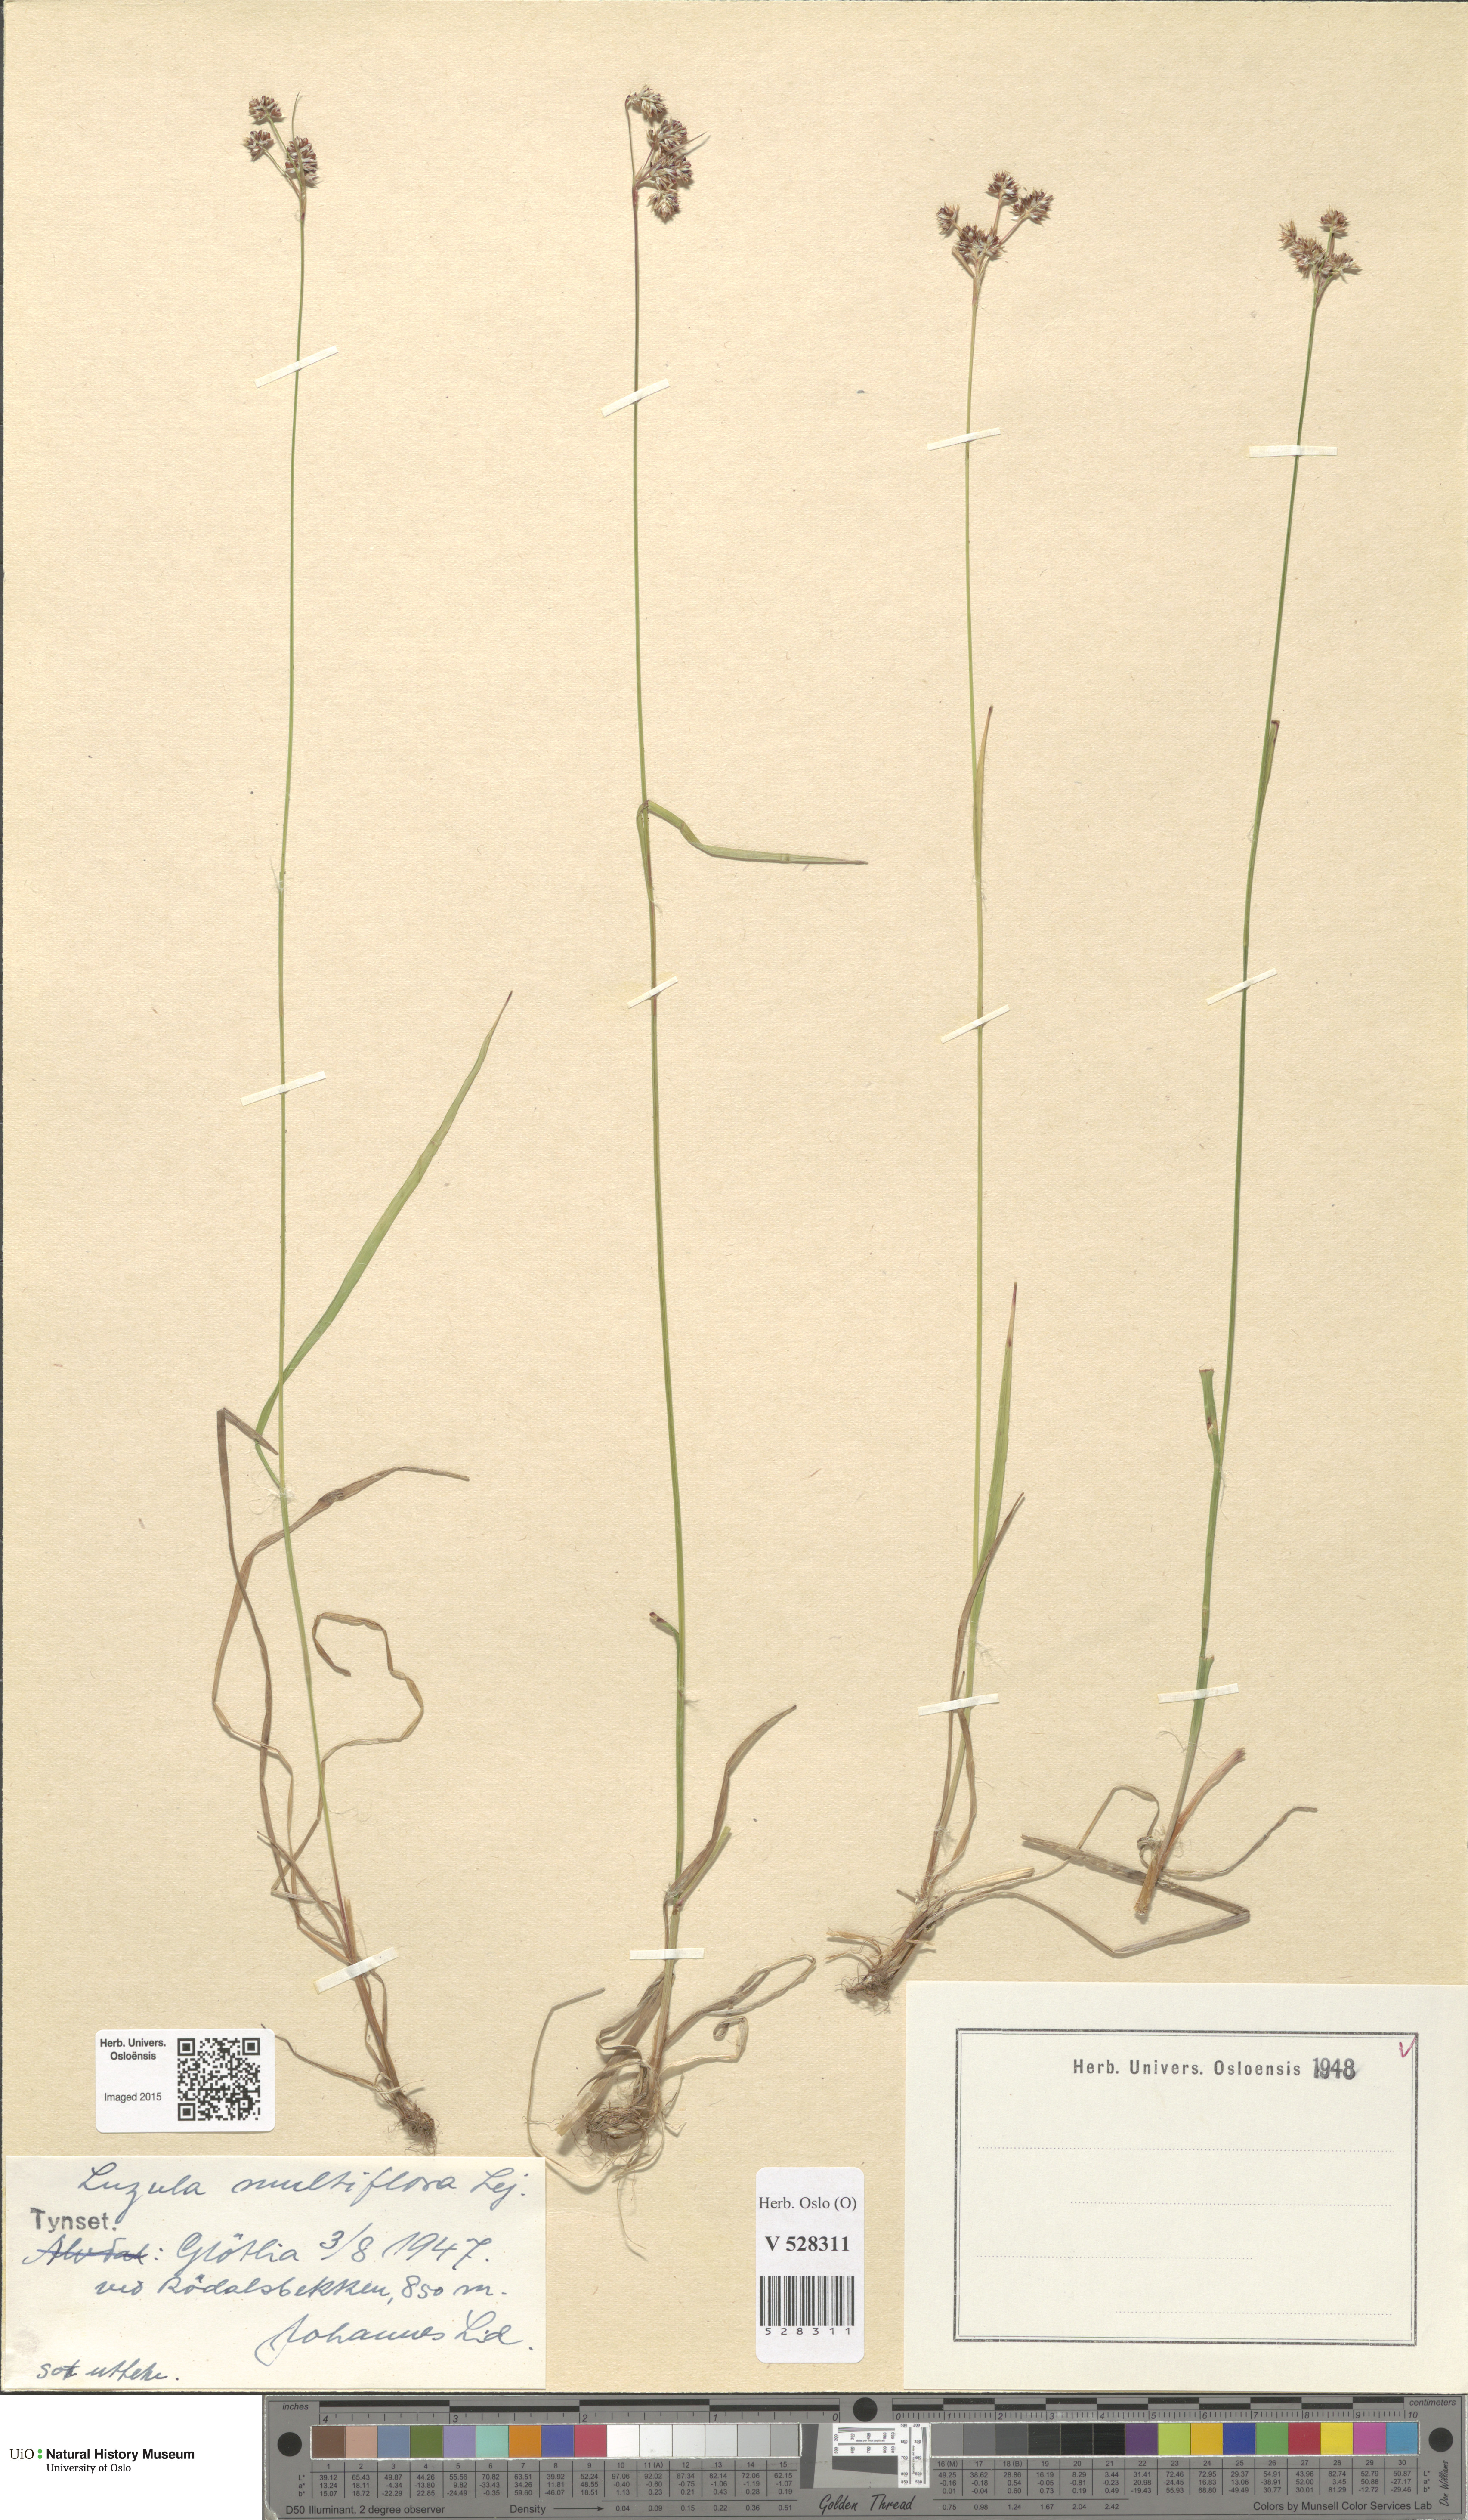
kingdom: Plantae
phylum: Tracheophyta
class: Liliopsida
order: Poales
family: Juncaceae
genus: Luzula
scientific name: Luzula multiflora
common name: Heath wood-rush
